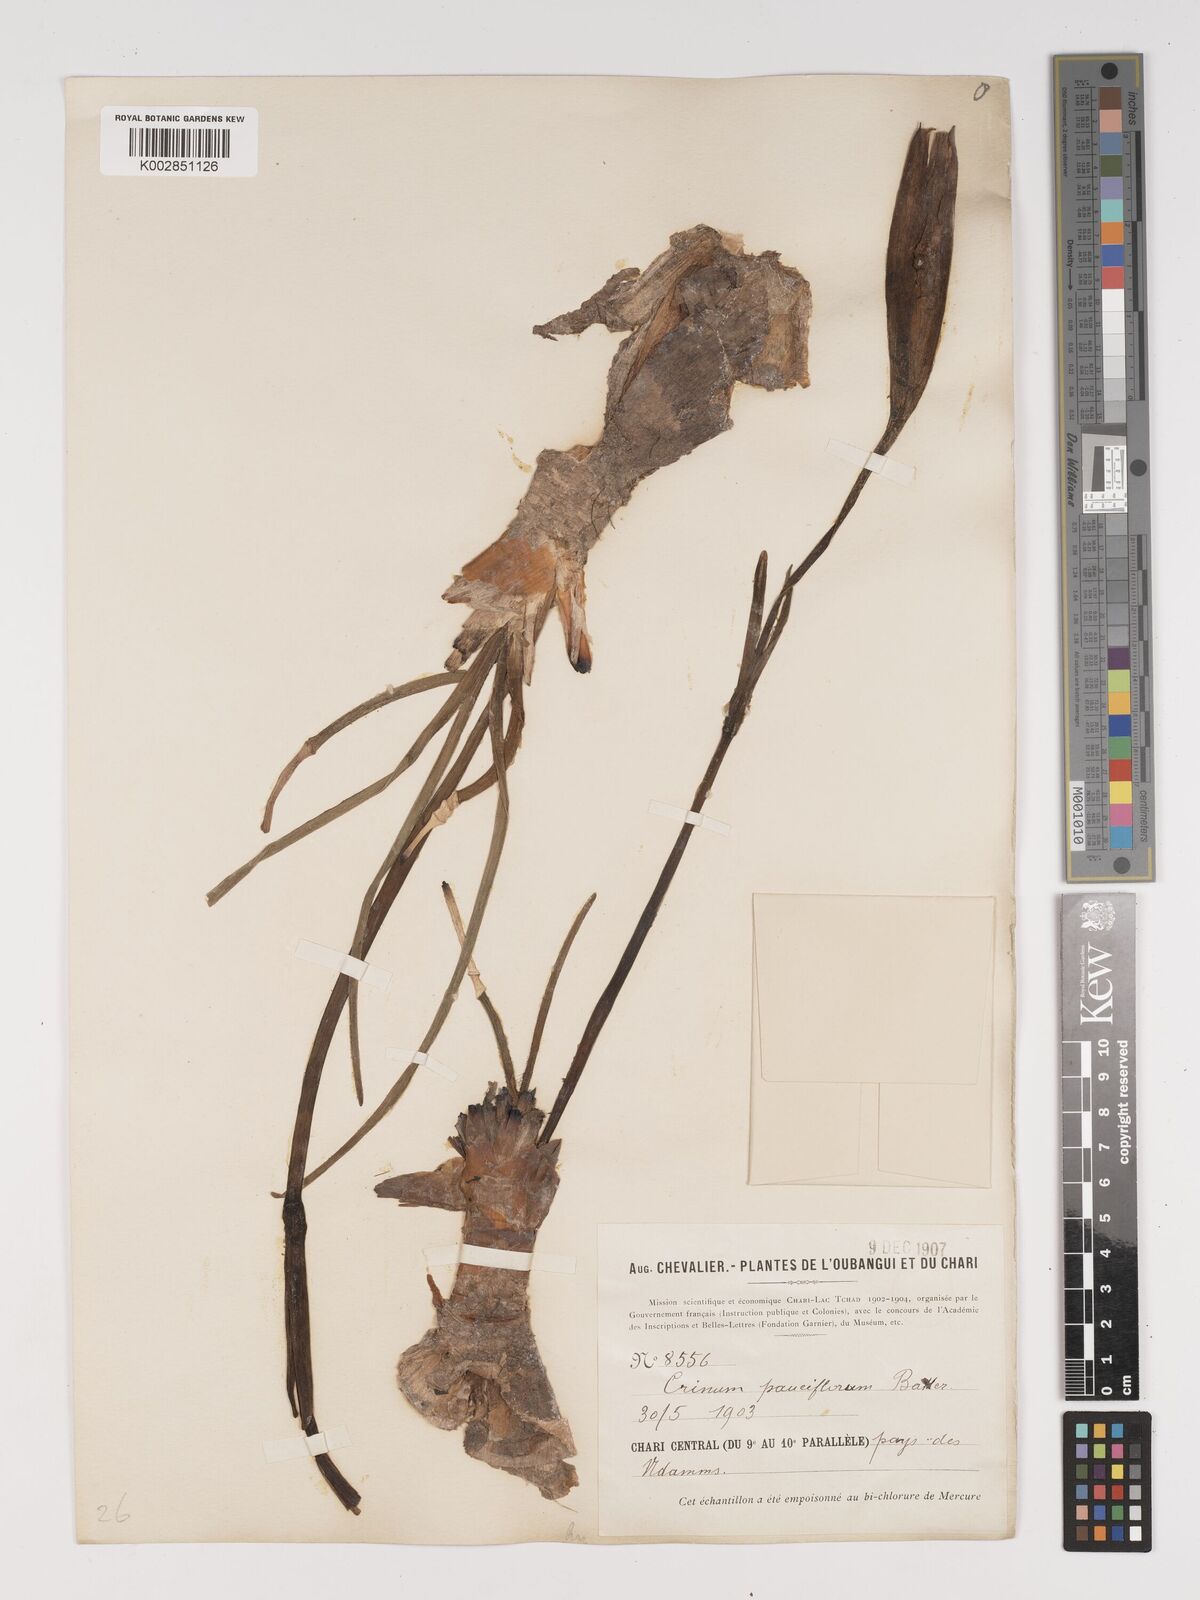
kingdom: Plantae
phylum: Tracheophyta
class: Liliopsida
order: Asparagales
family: Amaryllidaceae
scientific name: Amaryllidaceae
